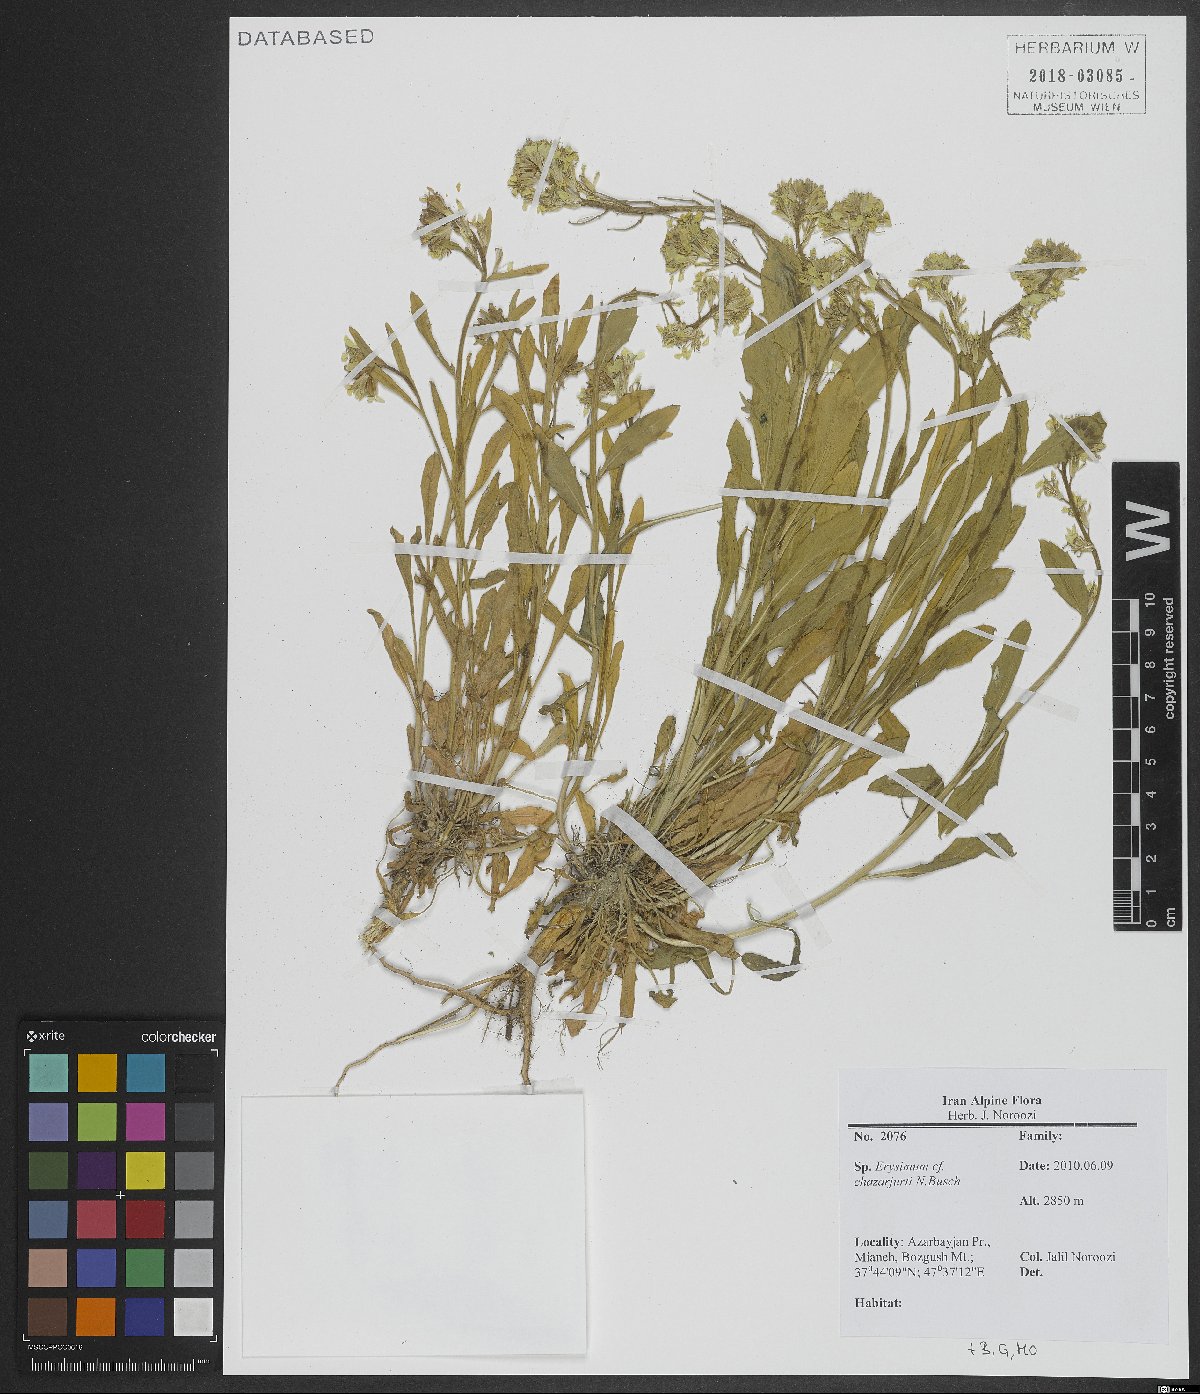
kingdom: Plantae
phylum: Tracheophyta
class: Magnoliopsida
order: Brassicales
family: Brassicaceae
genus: Erysimum
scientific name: Erysimum chazarjurti
